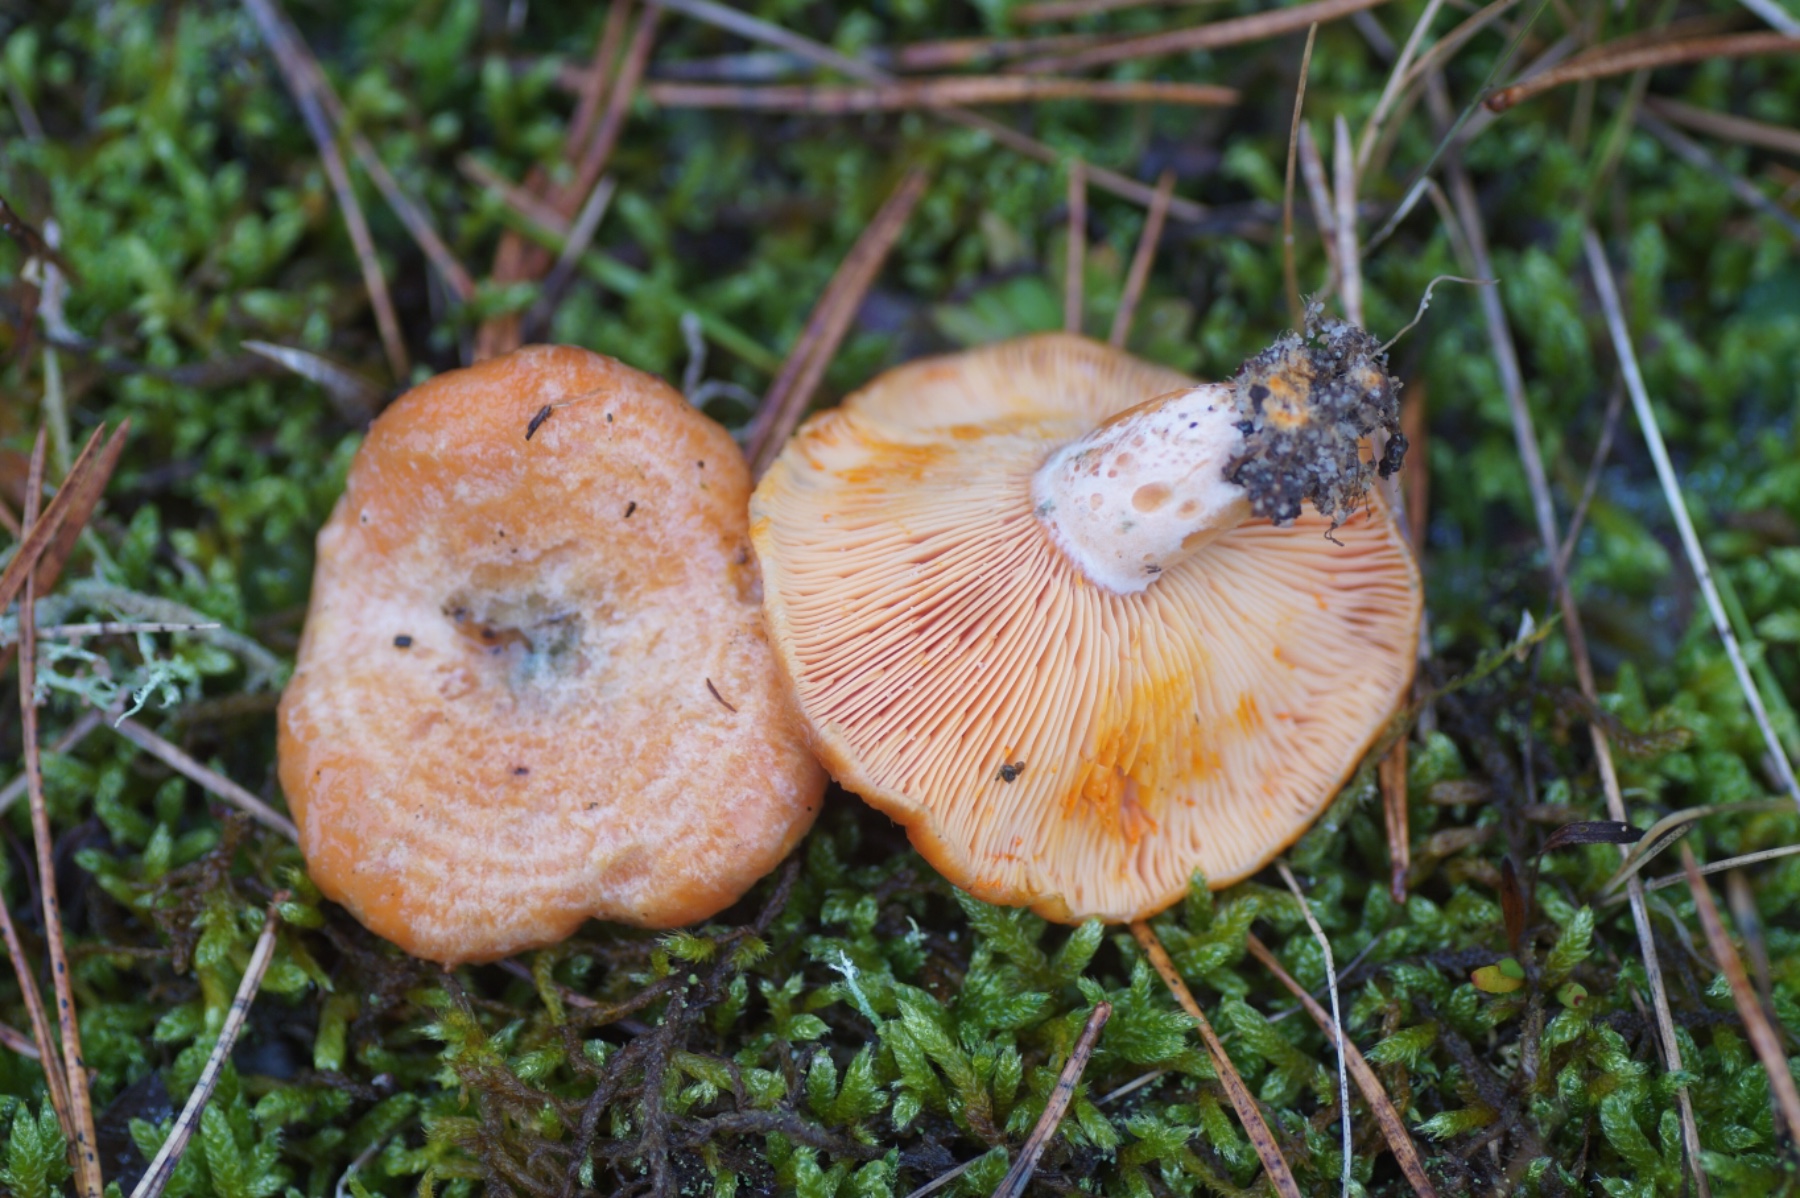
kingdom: Fungi
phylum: Basidiomycota
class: Agaricomycetes
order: Russulales
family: Russulaceae
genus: Lactarius
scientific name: Lactarius deliciosus
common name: velsmagende mælkehat
